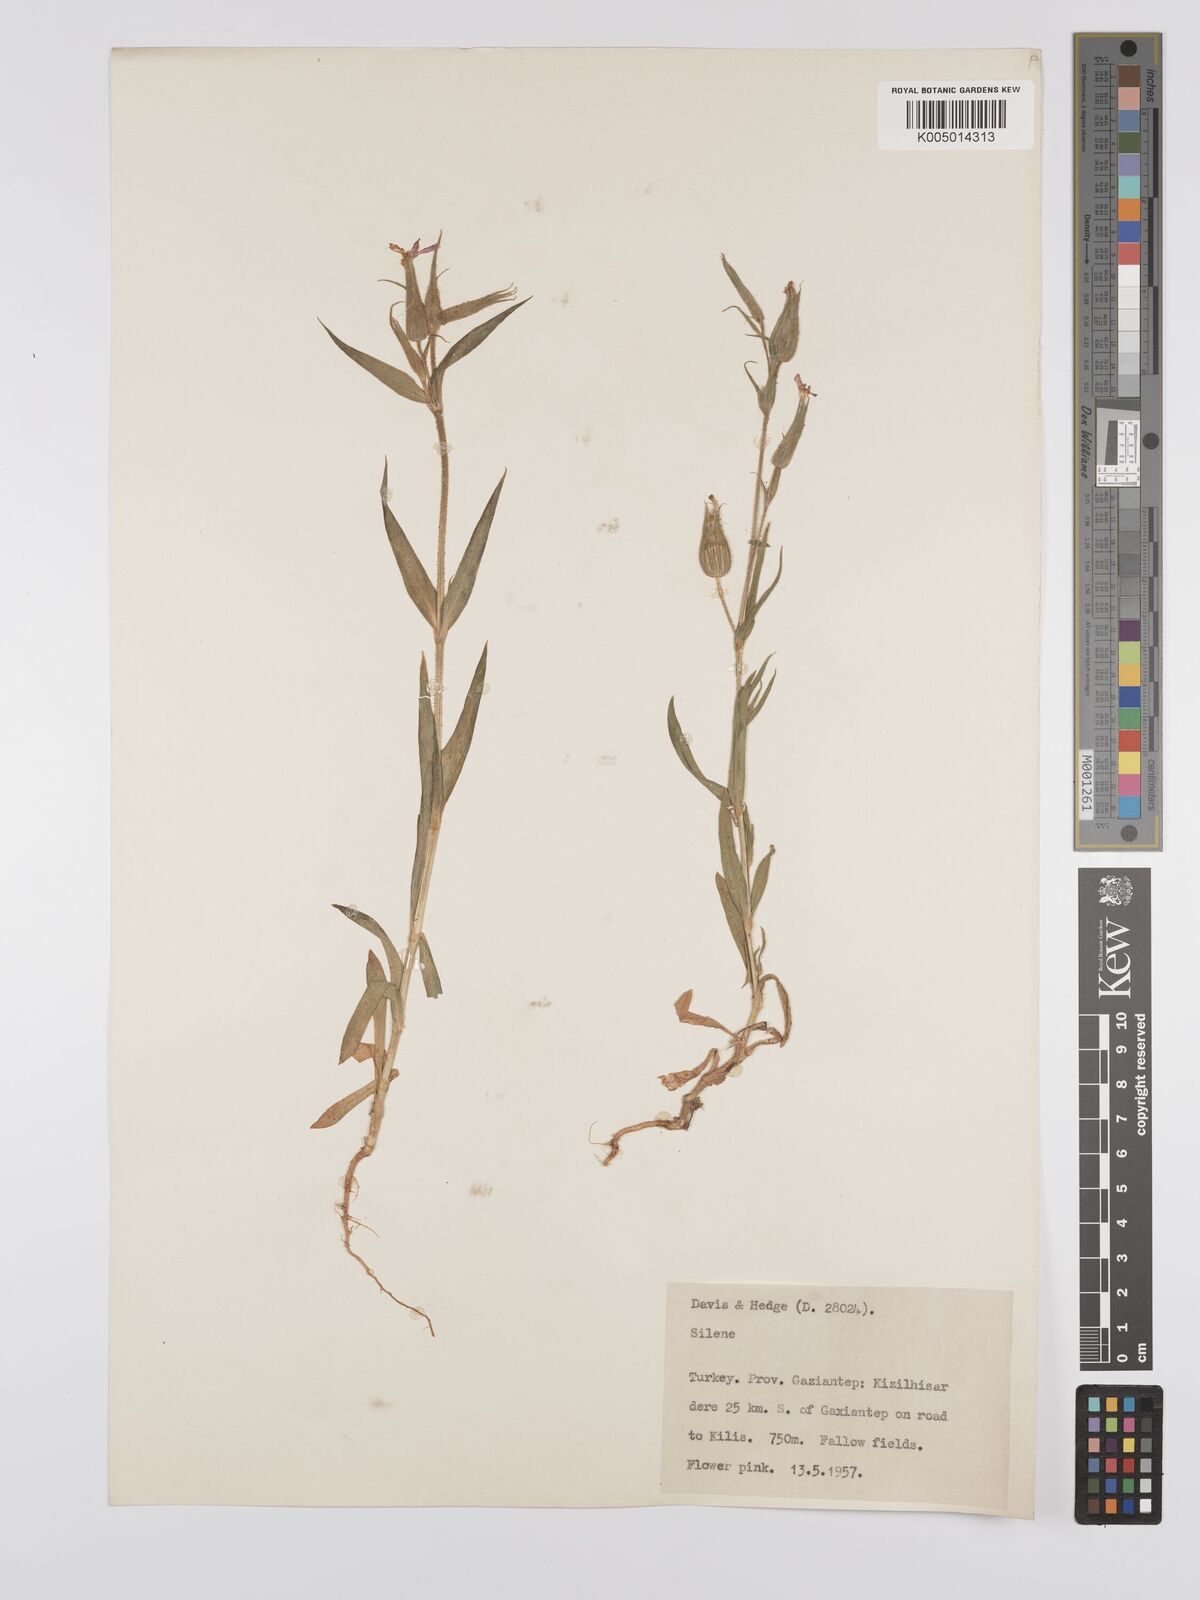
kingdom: Plantae
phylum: Tracheophyta
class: Magnoliopsida
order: Caryophyllales
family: Caryophyllaceae
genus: Silene
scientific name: Silene
